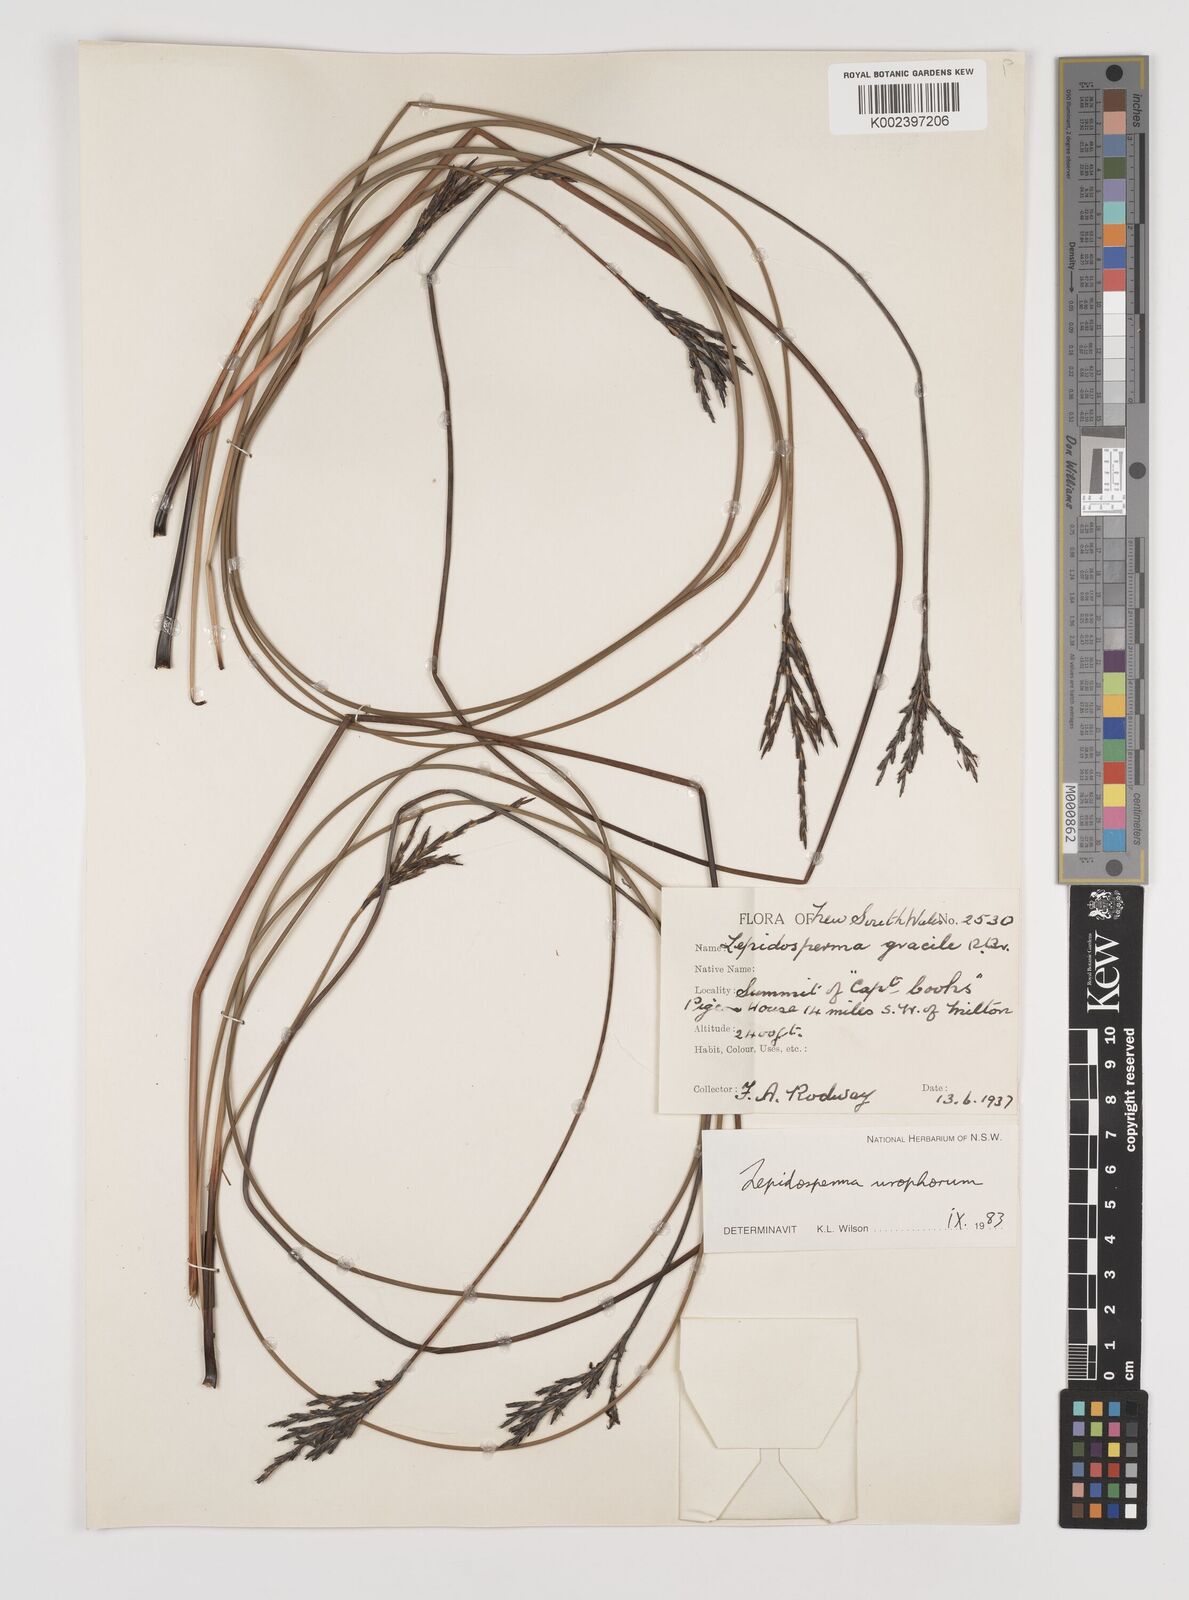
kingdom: Plantae
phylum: Tracheophyta
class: Liliopsida
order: Poales
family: Cyperaceae
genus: Lepidosperma
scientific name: Lepidosperma urophorum
